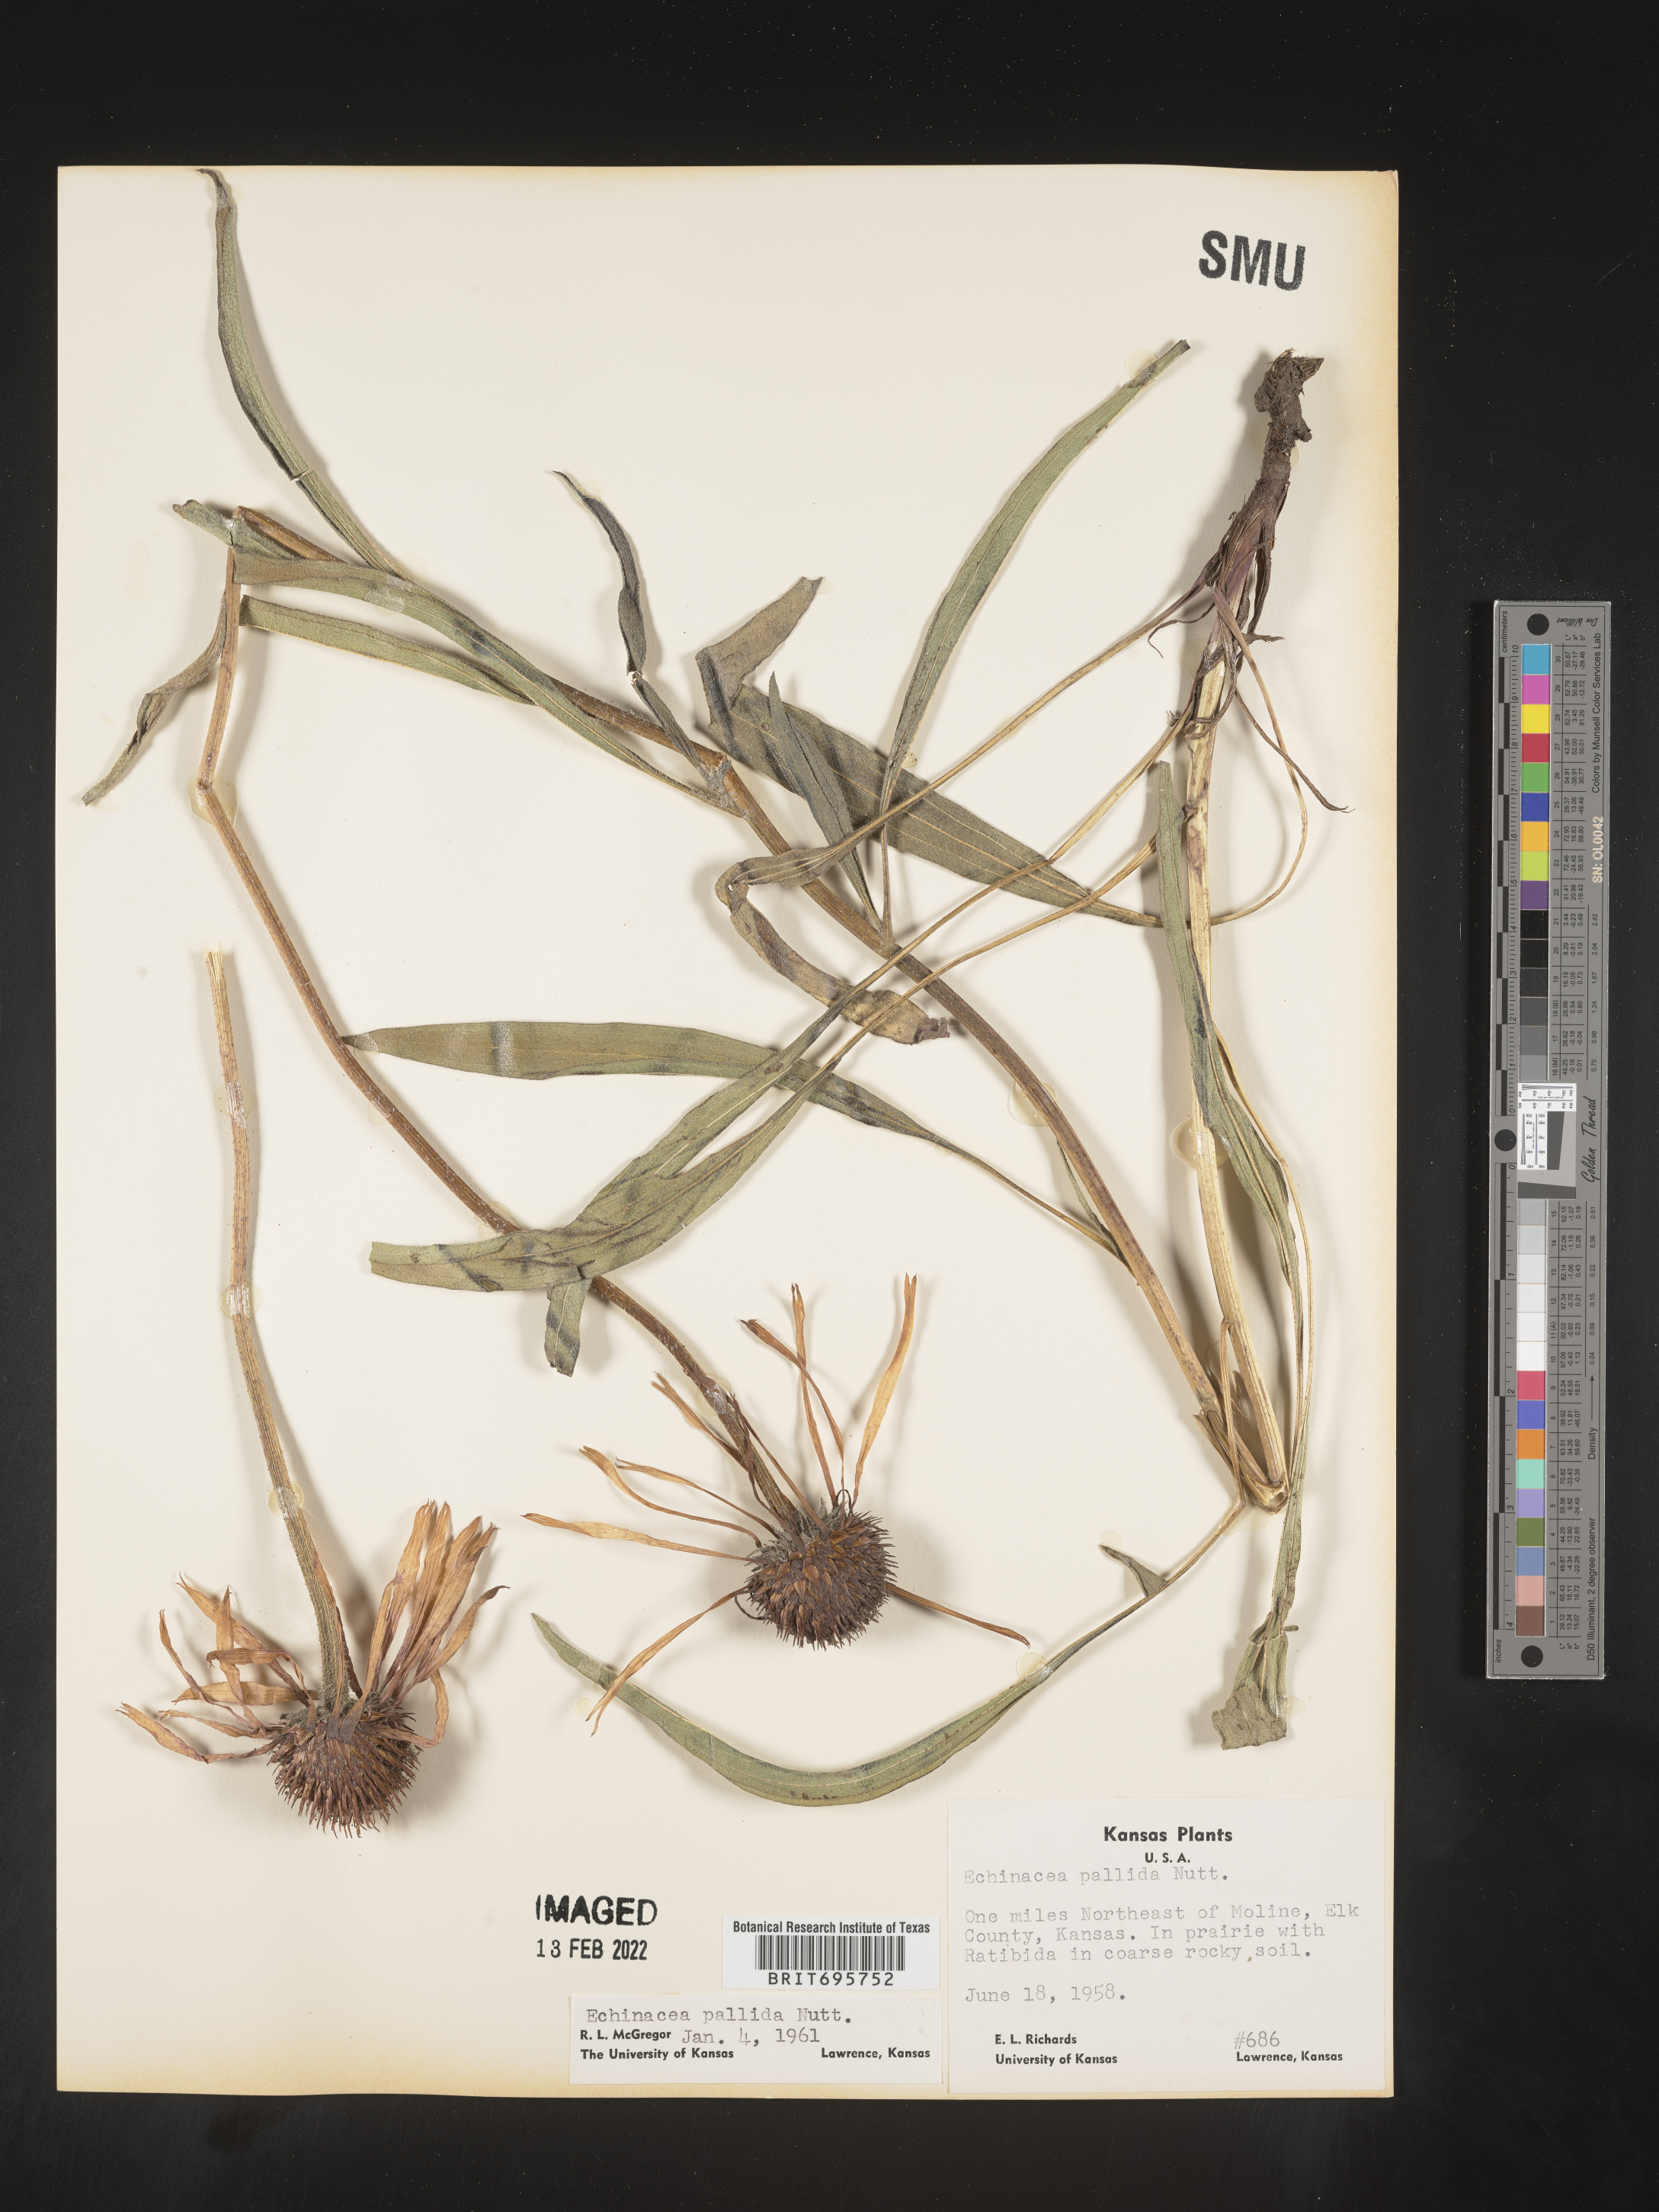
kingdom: Plantae
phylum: Tracheophyta
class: Magnoliopsida
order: Asterales
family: Asteraceae
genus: Echinacea
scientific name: Echinacea pallida
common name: Pale echinacea
